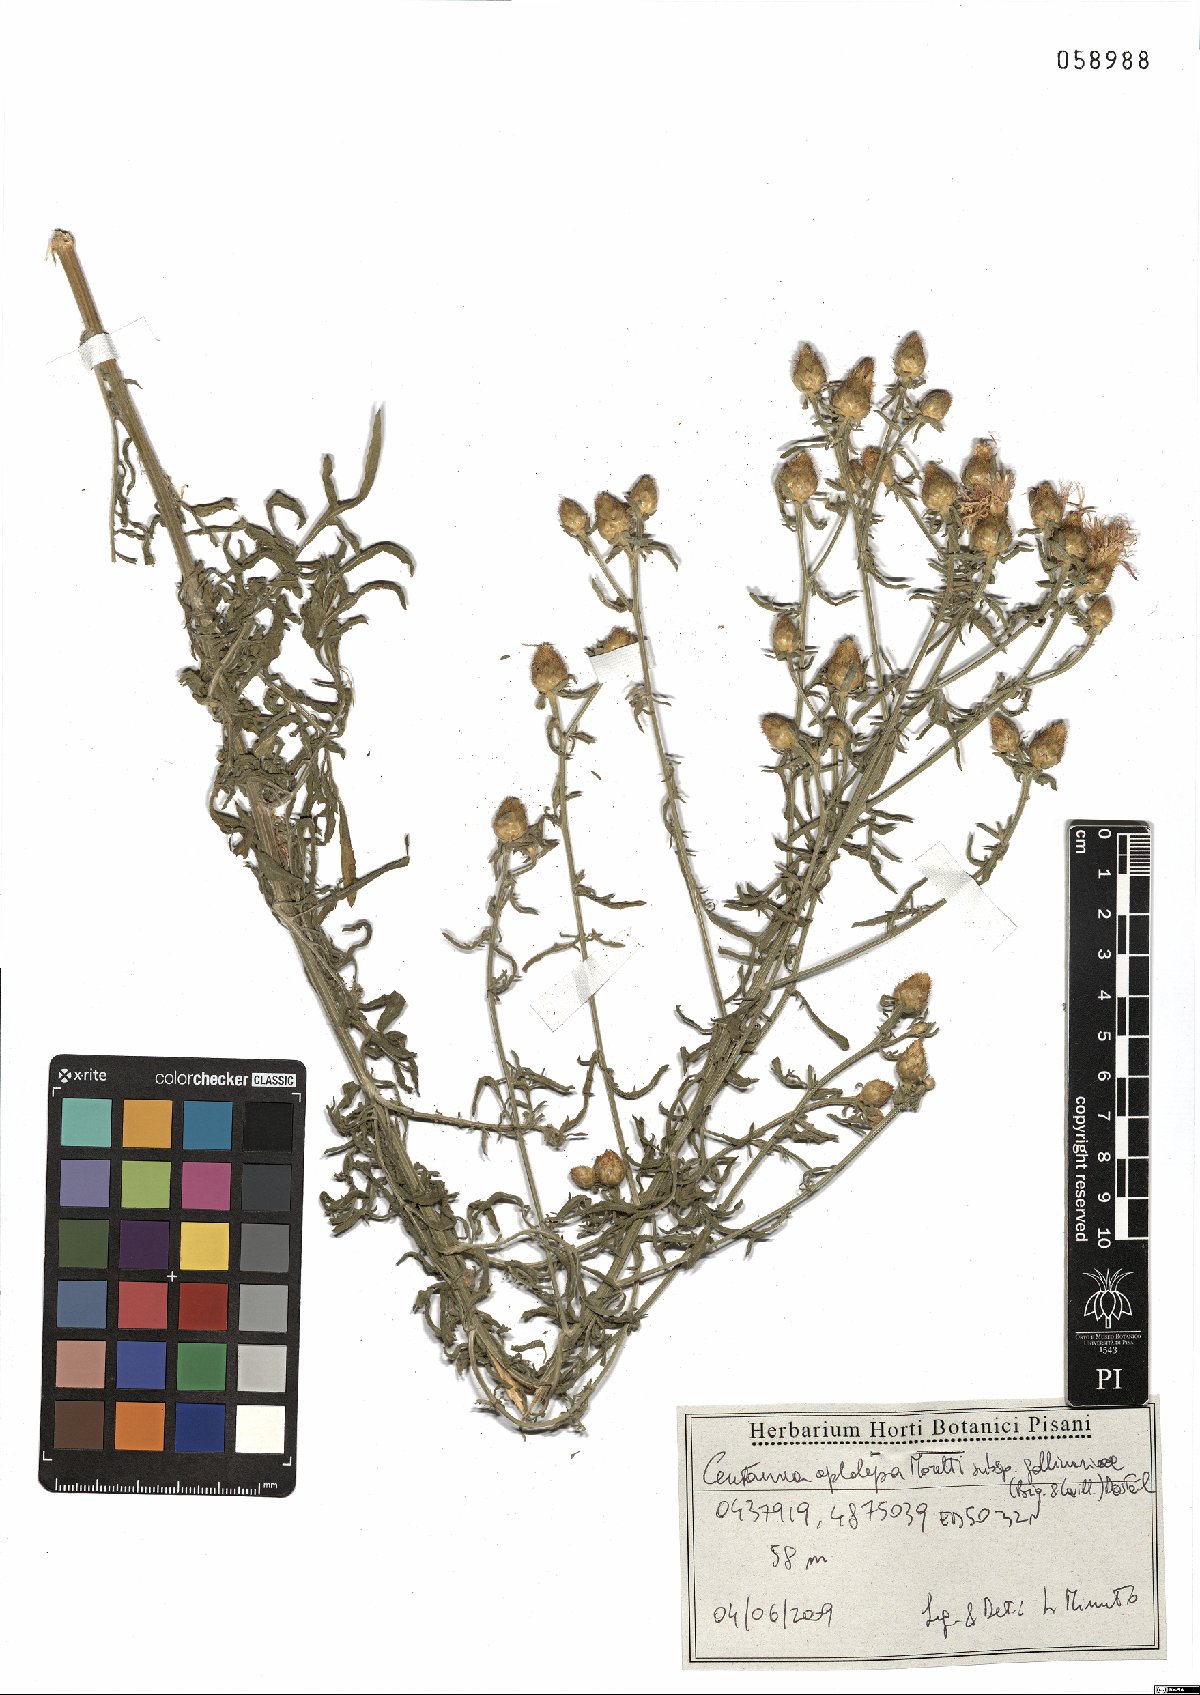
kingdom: Plantae
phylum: Tracheophyta
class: Magnoliopsida
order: Asterales
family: Asteraceae
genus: Centaurea
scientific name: Centaurea aplolepa
